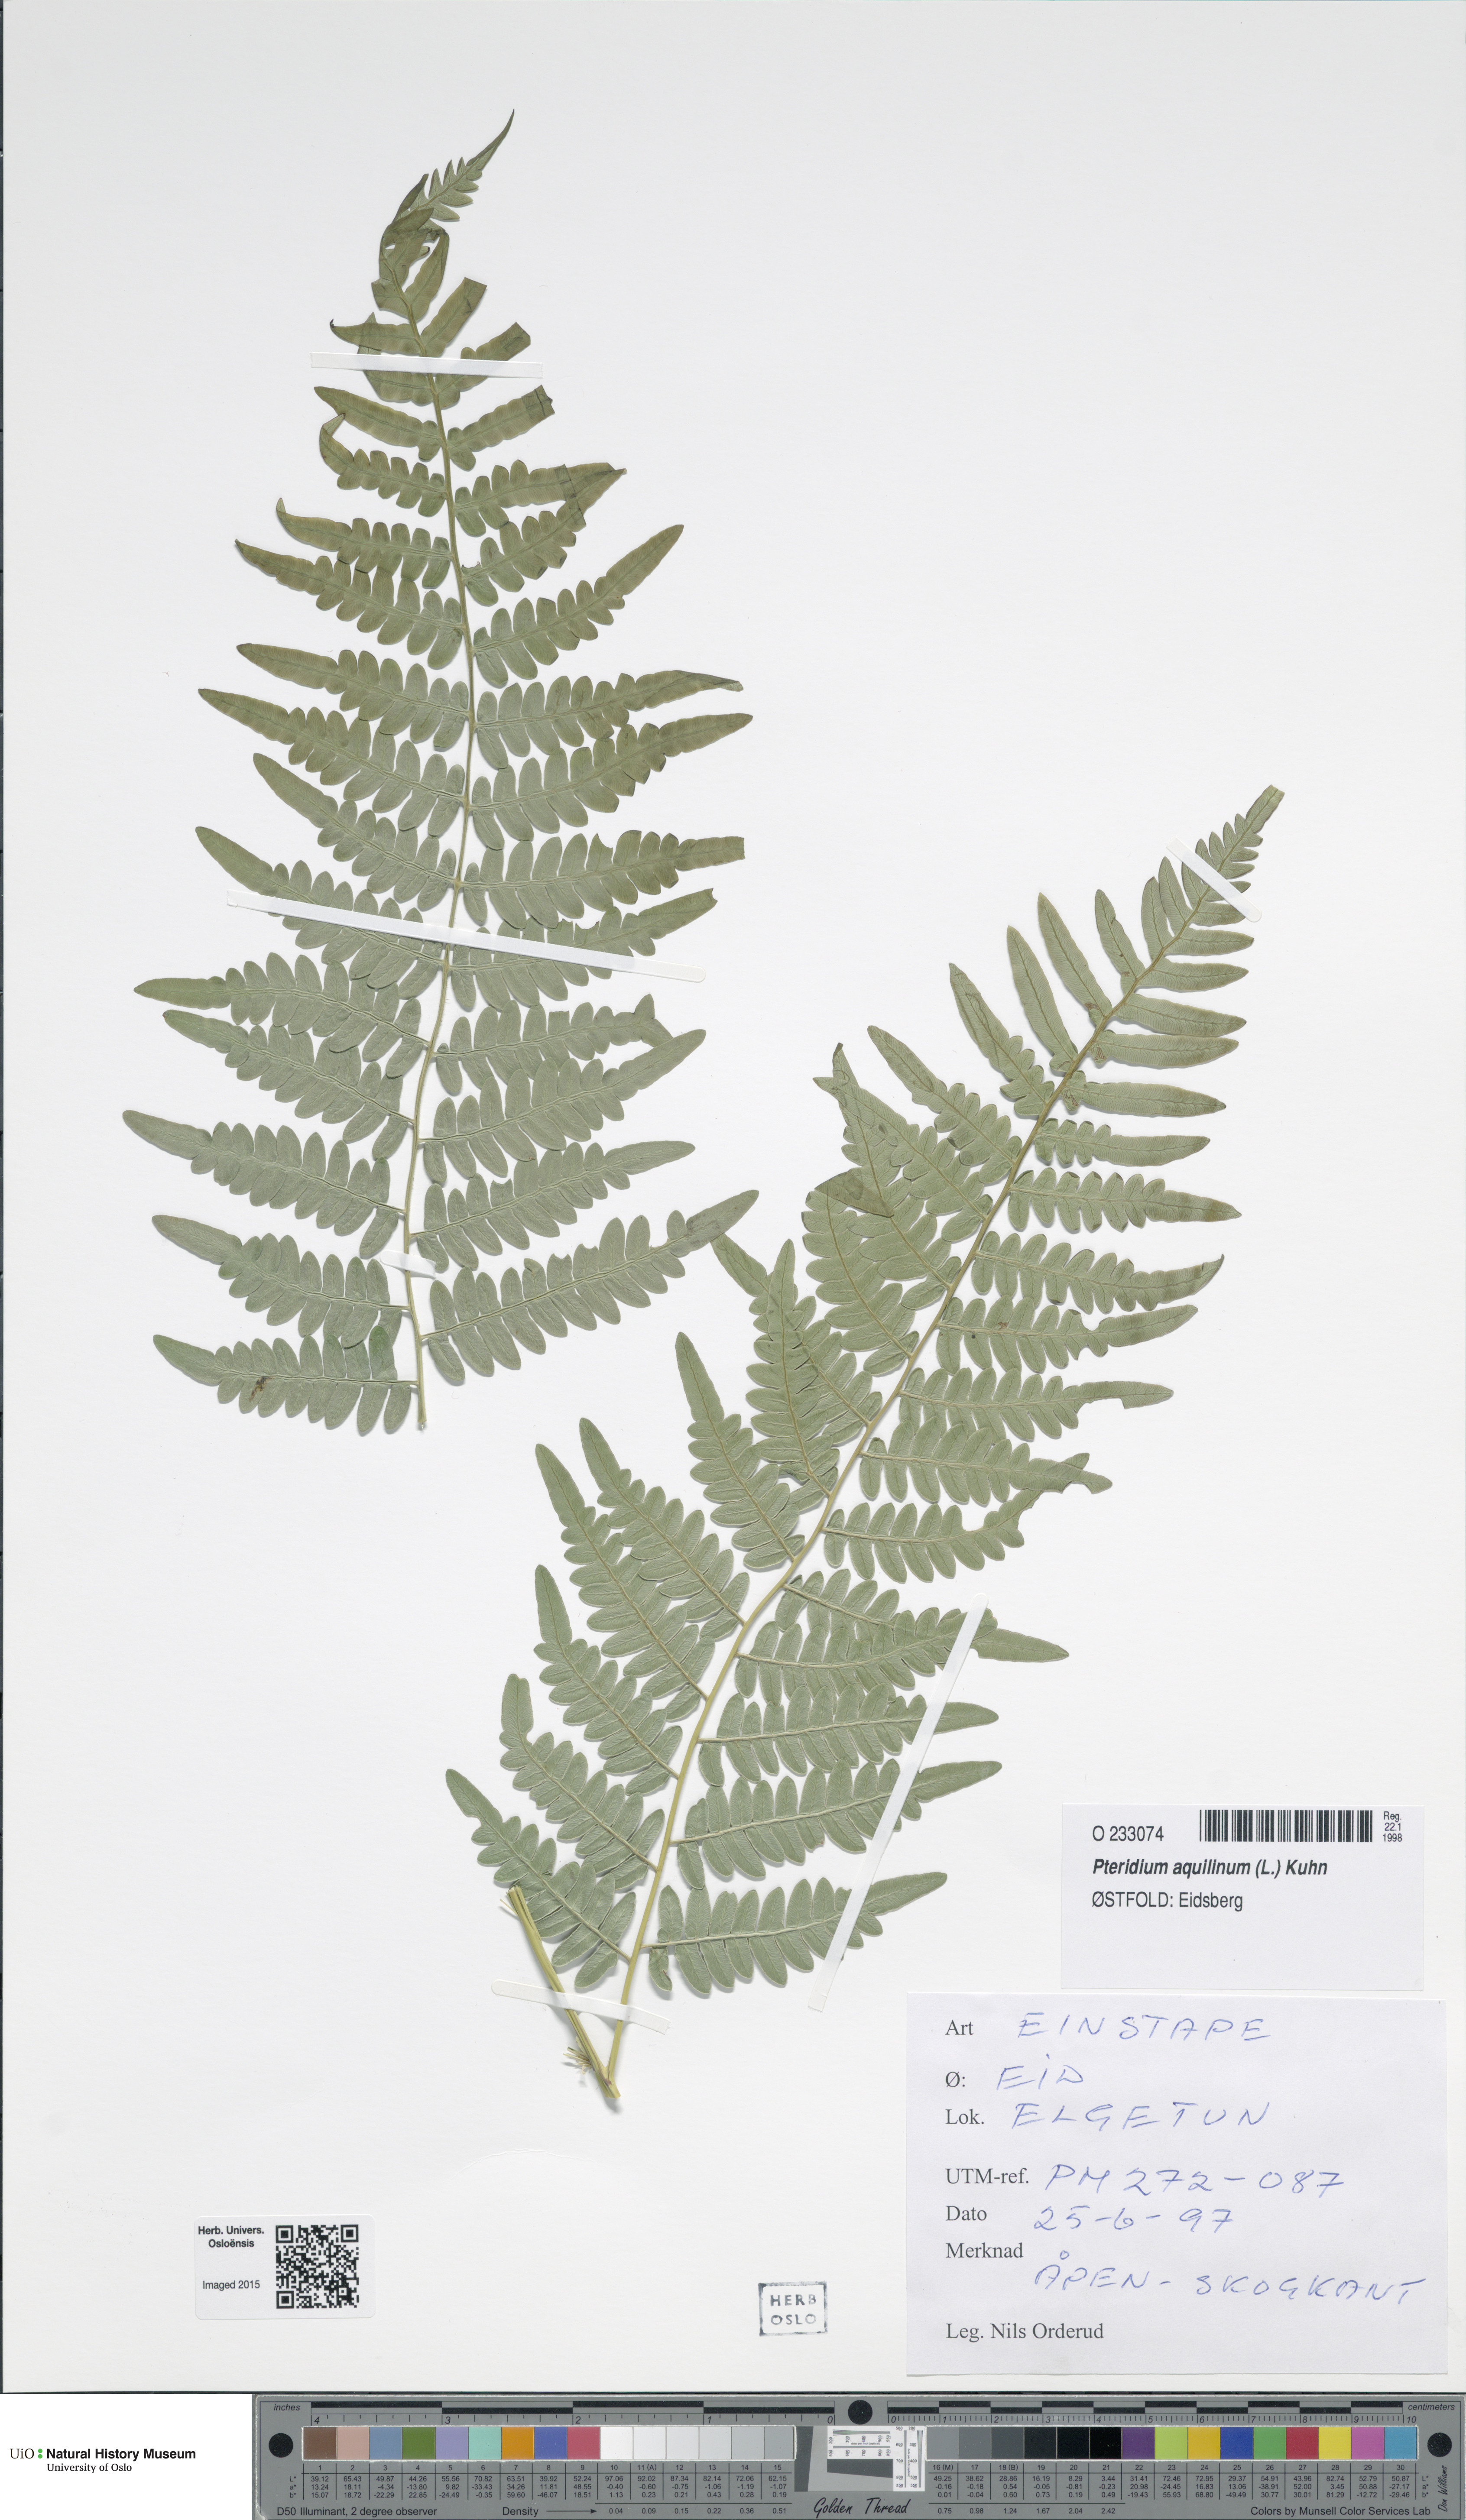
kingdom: Plantae
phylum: Tracheophyta
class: Polypodiopsida
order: Polypodiales
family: Dennstaedtiaceae
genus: Pteridium
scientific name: Pteridium aquilinum
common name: Bracken
